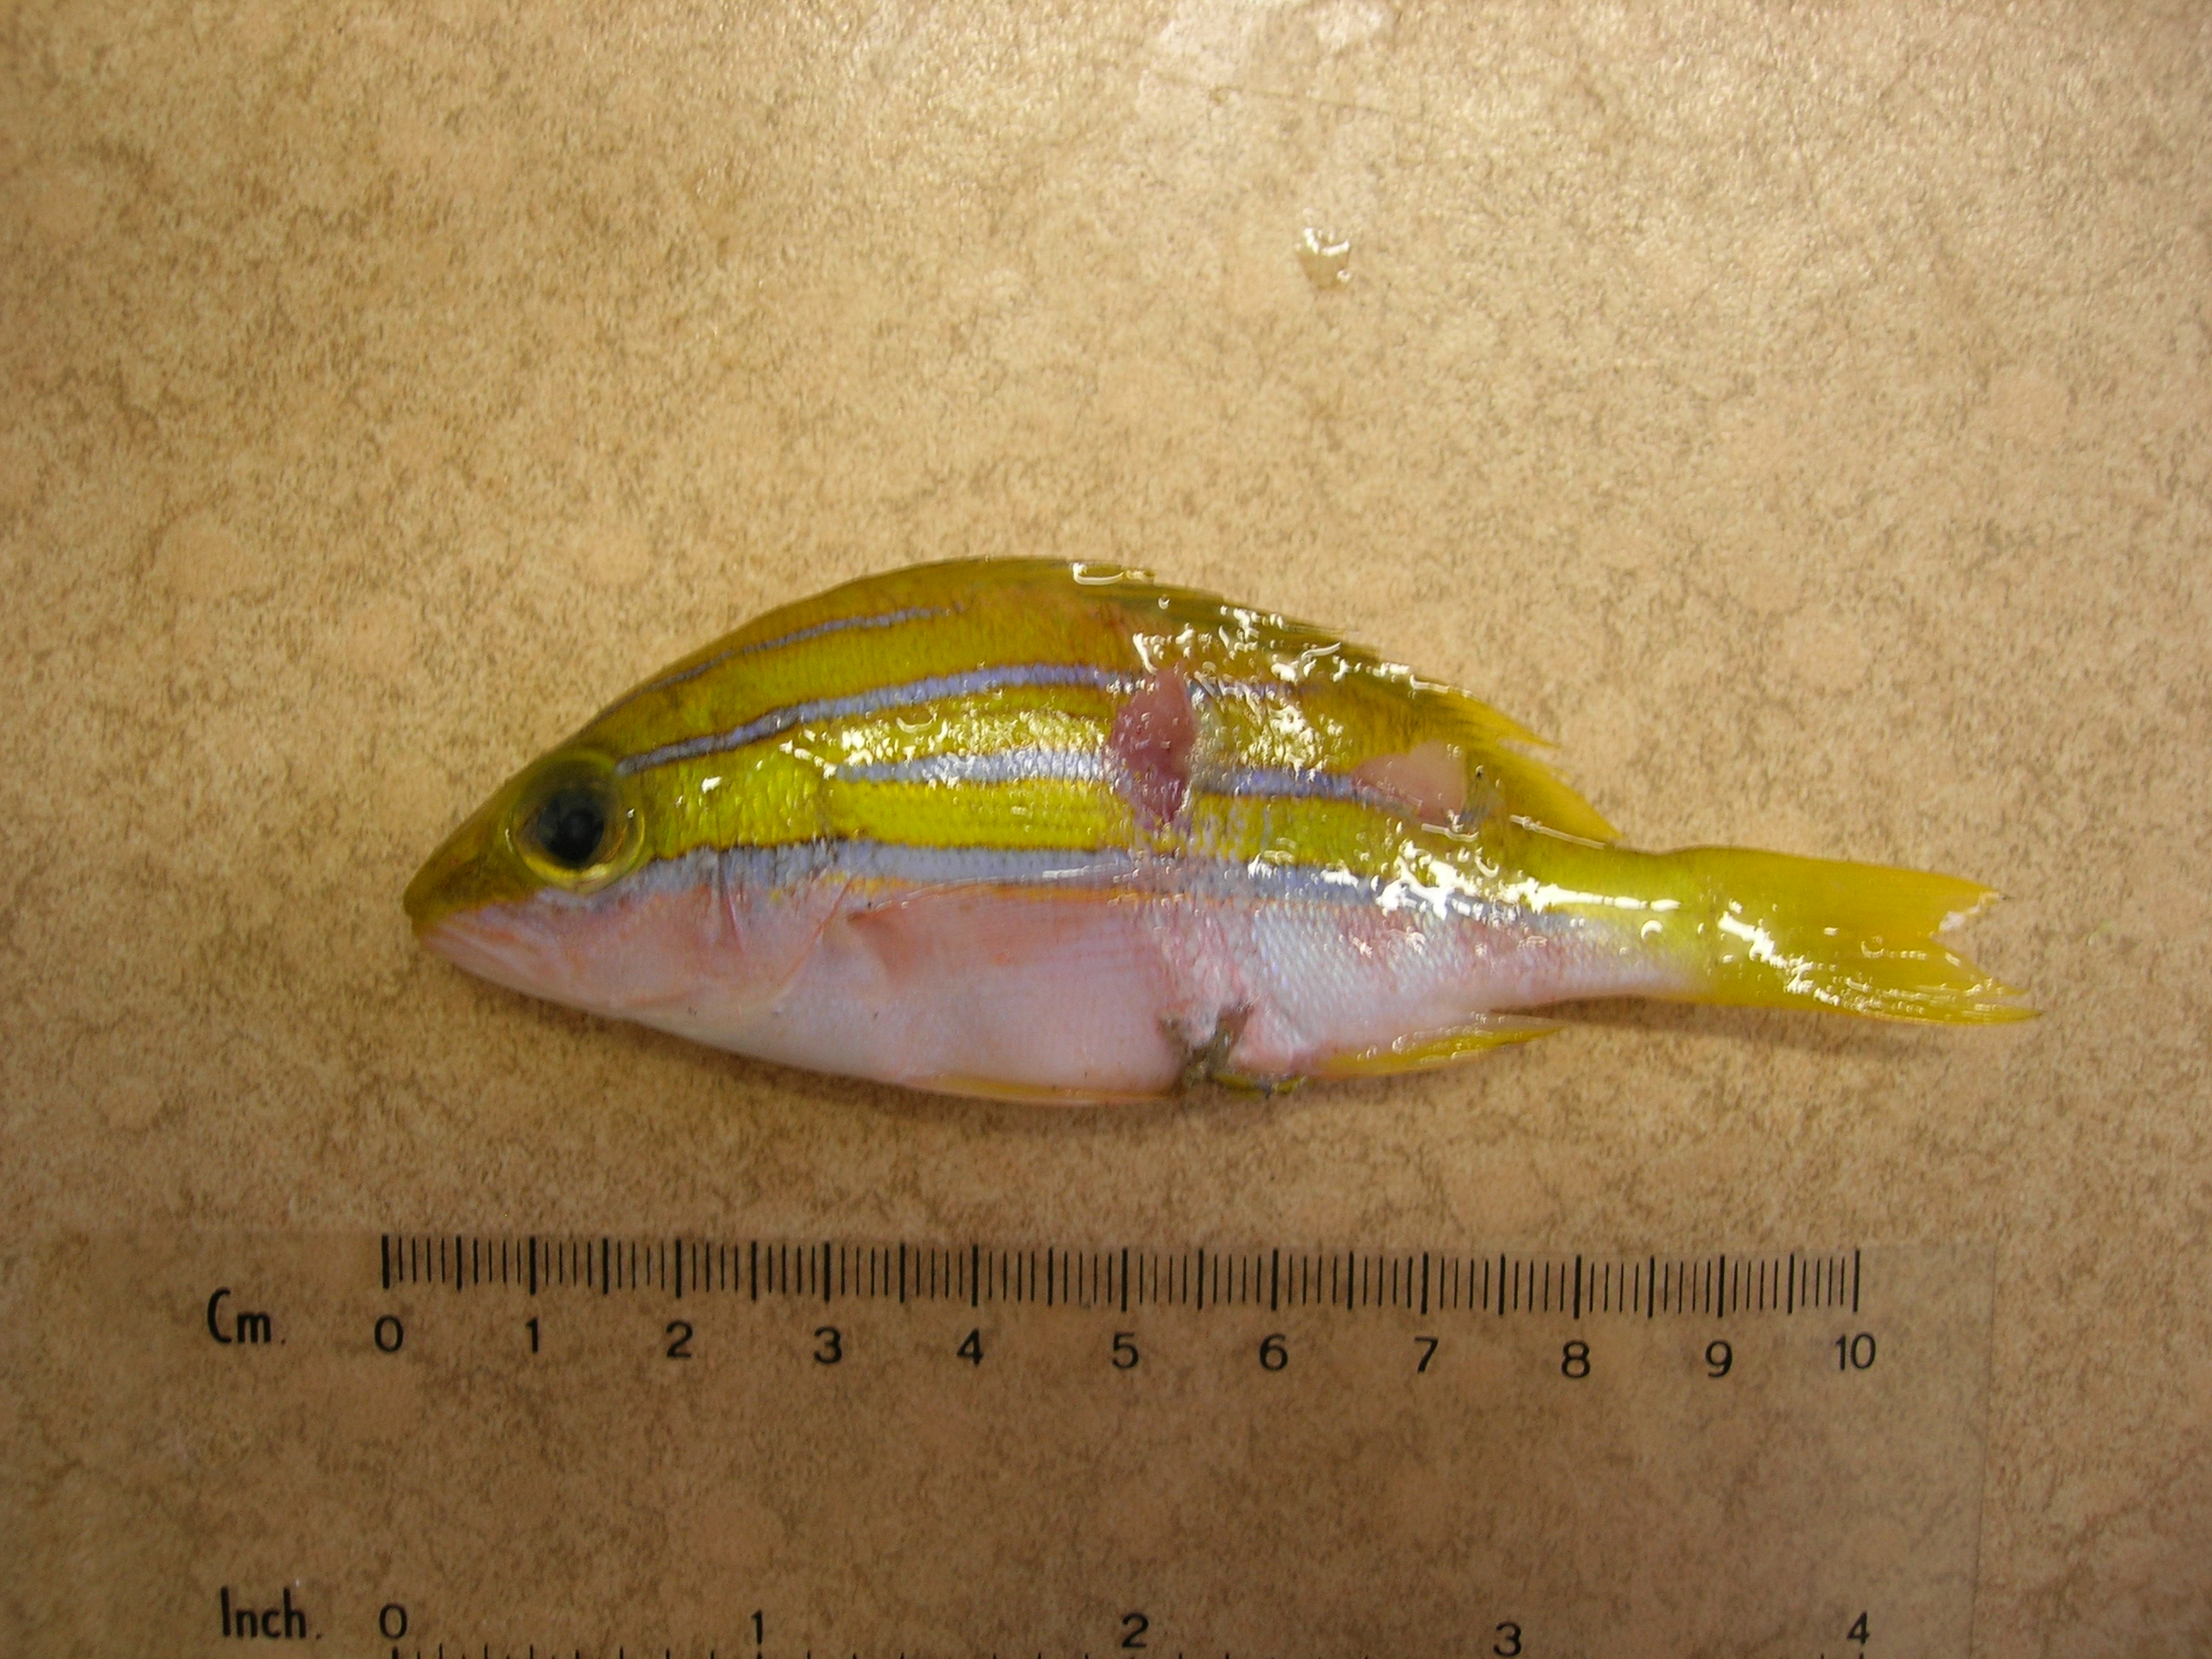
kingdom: Animalia
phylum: Chordata
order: Perciformes
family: Lutjanidae
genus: Lutjanus
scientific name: Lutjanus bengalensis
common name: Bengal snapper
